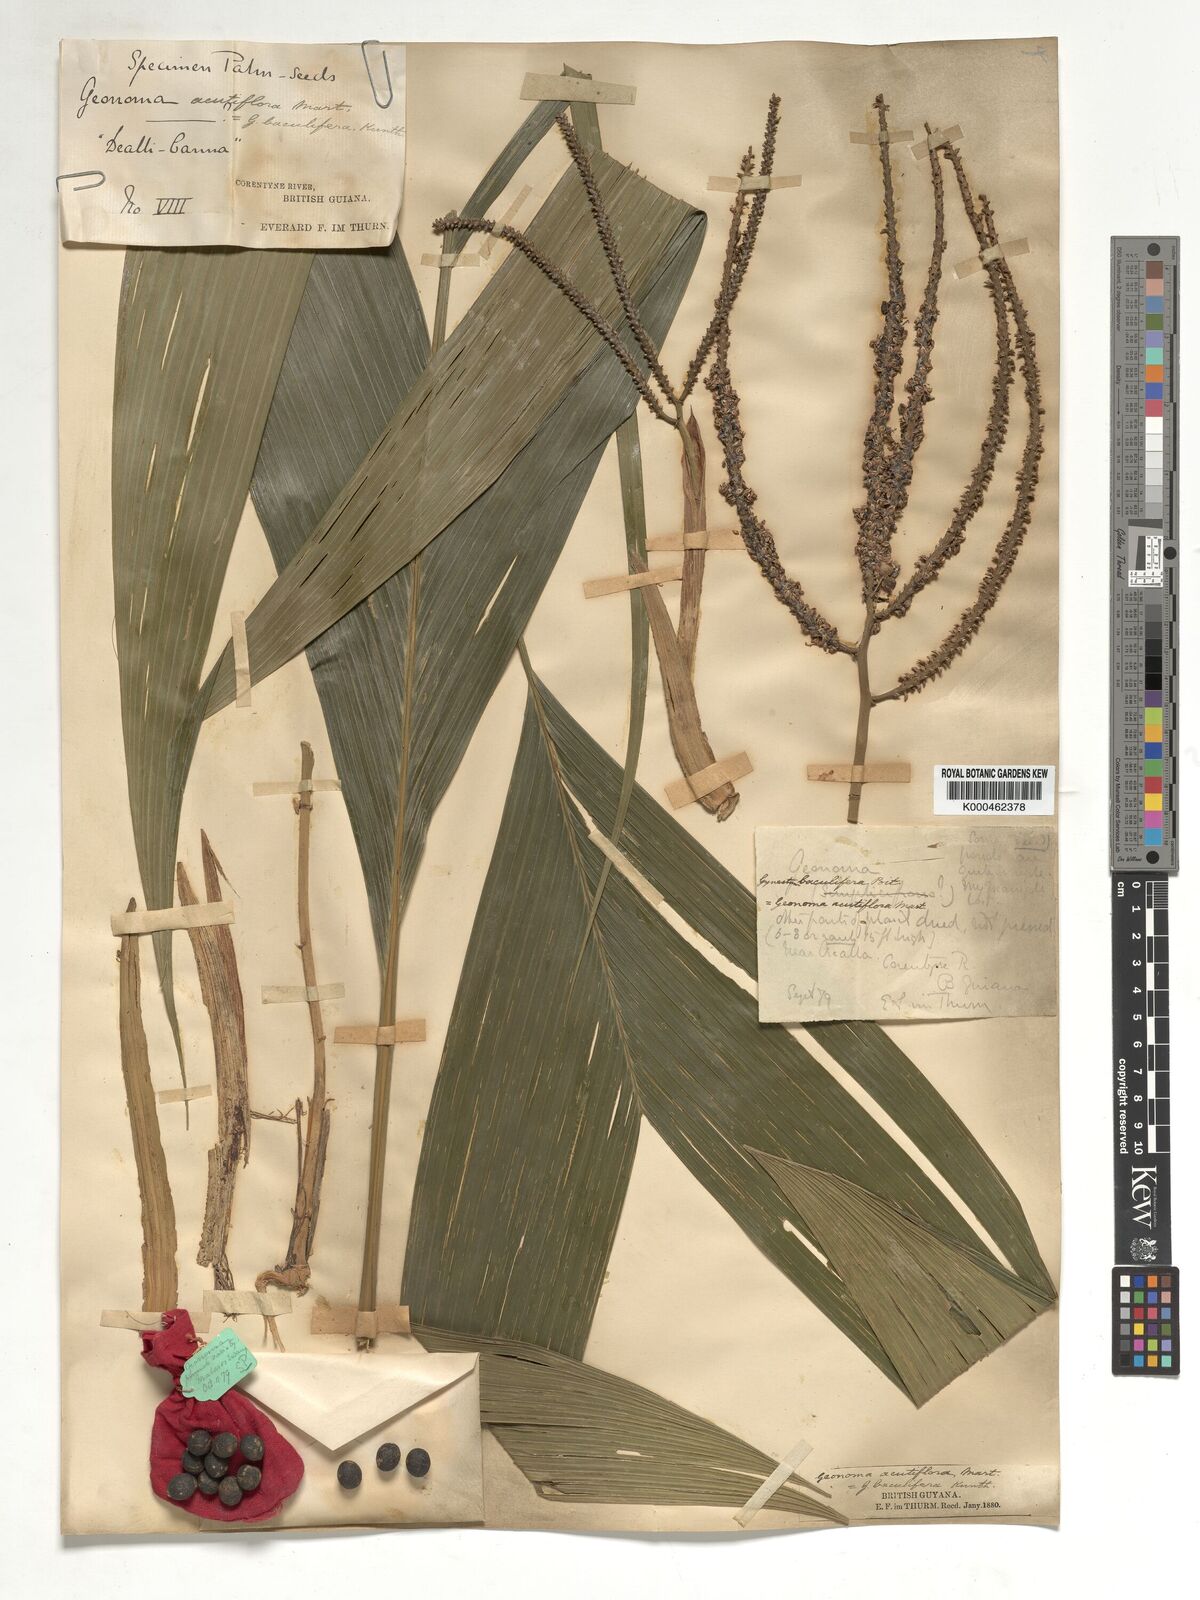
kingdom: Plantae
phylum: Tracheophyta
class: Liliopsida
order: Arecales
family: Arecaceae
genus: Geonoma
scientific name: Geonoma baculifera
